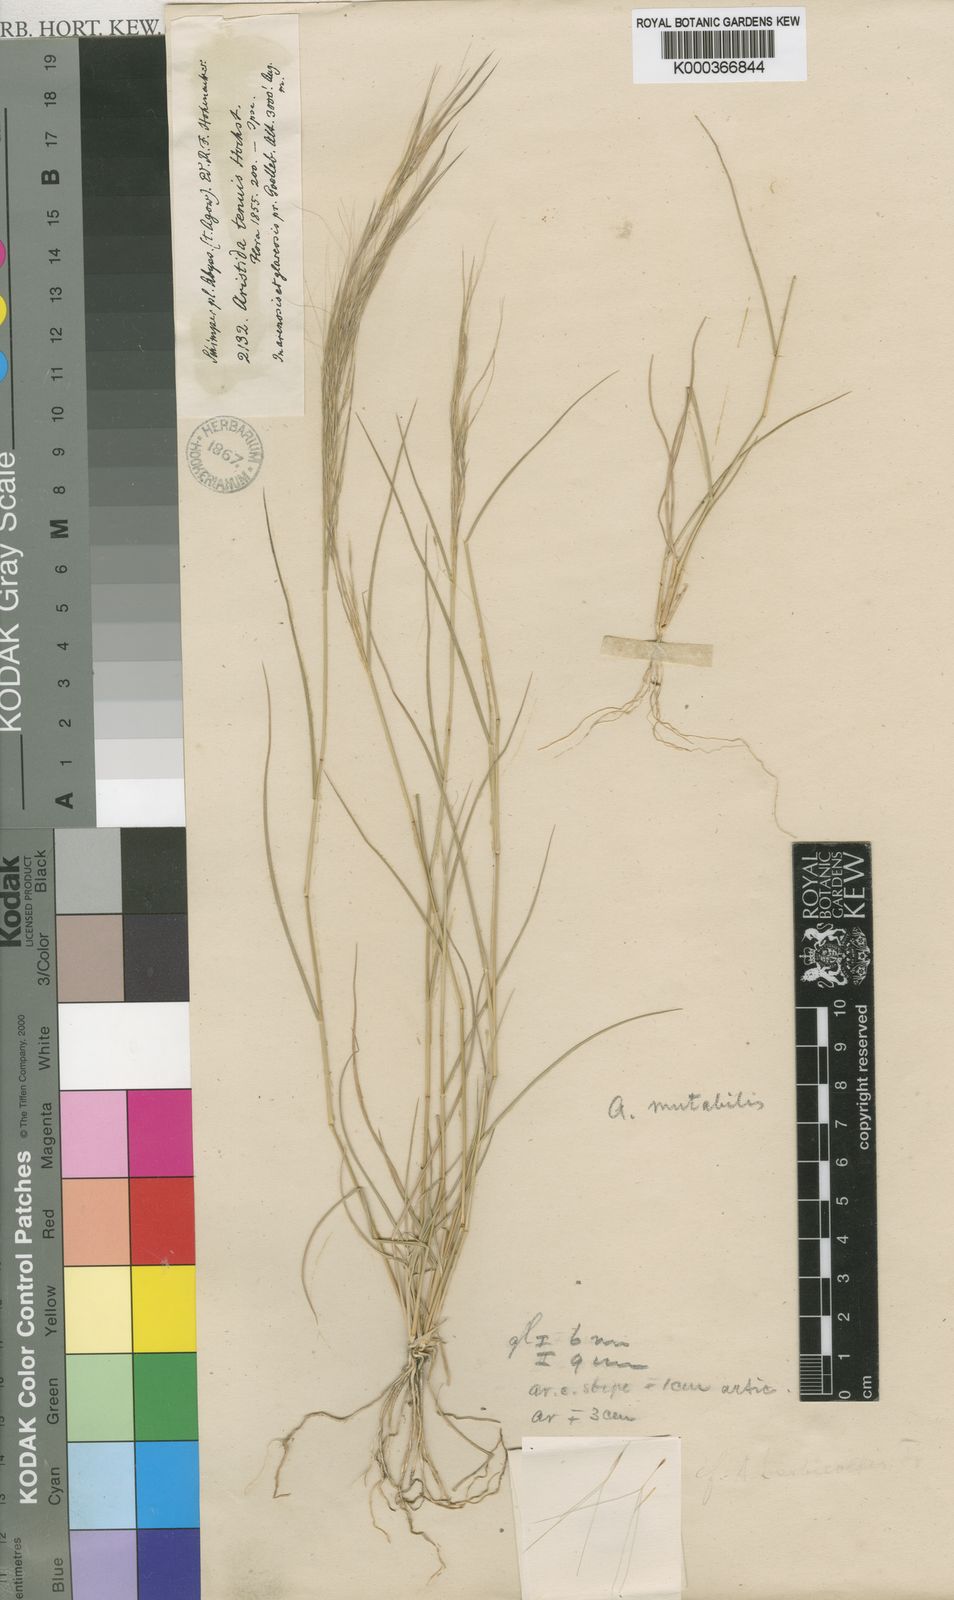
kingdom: Plantae
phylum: Tracheophyta
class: Liliopsida
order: Poales
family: Poaceae
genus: Aristida
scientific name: Aristida mutabilis
